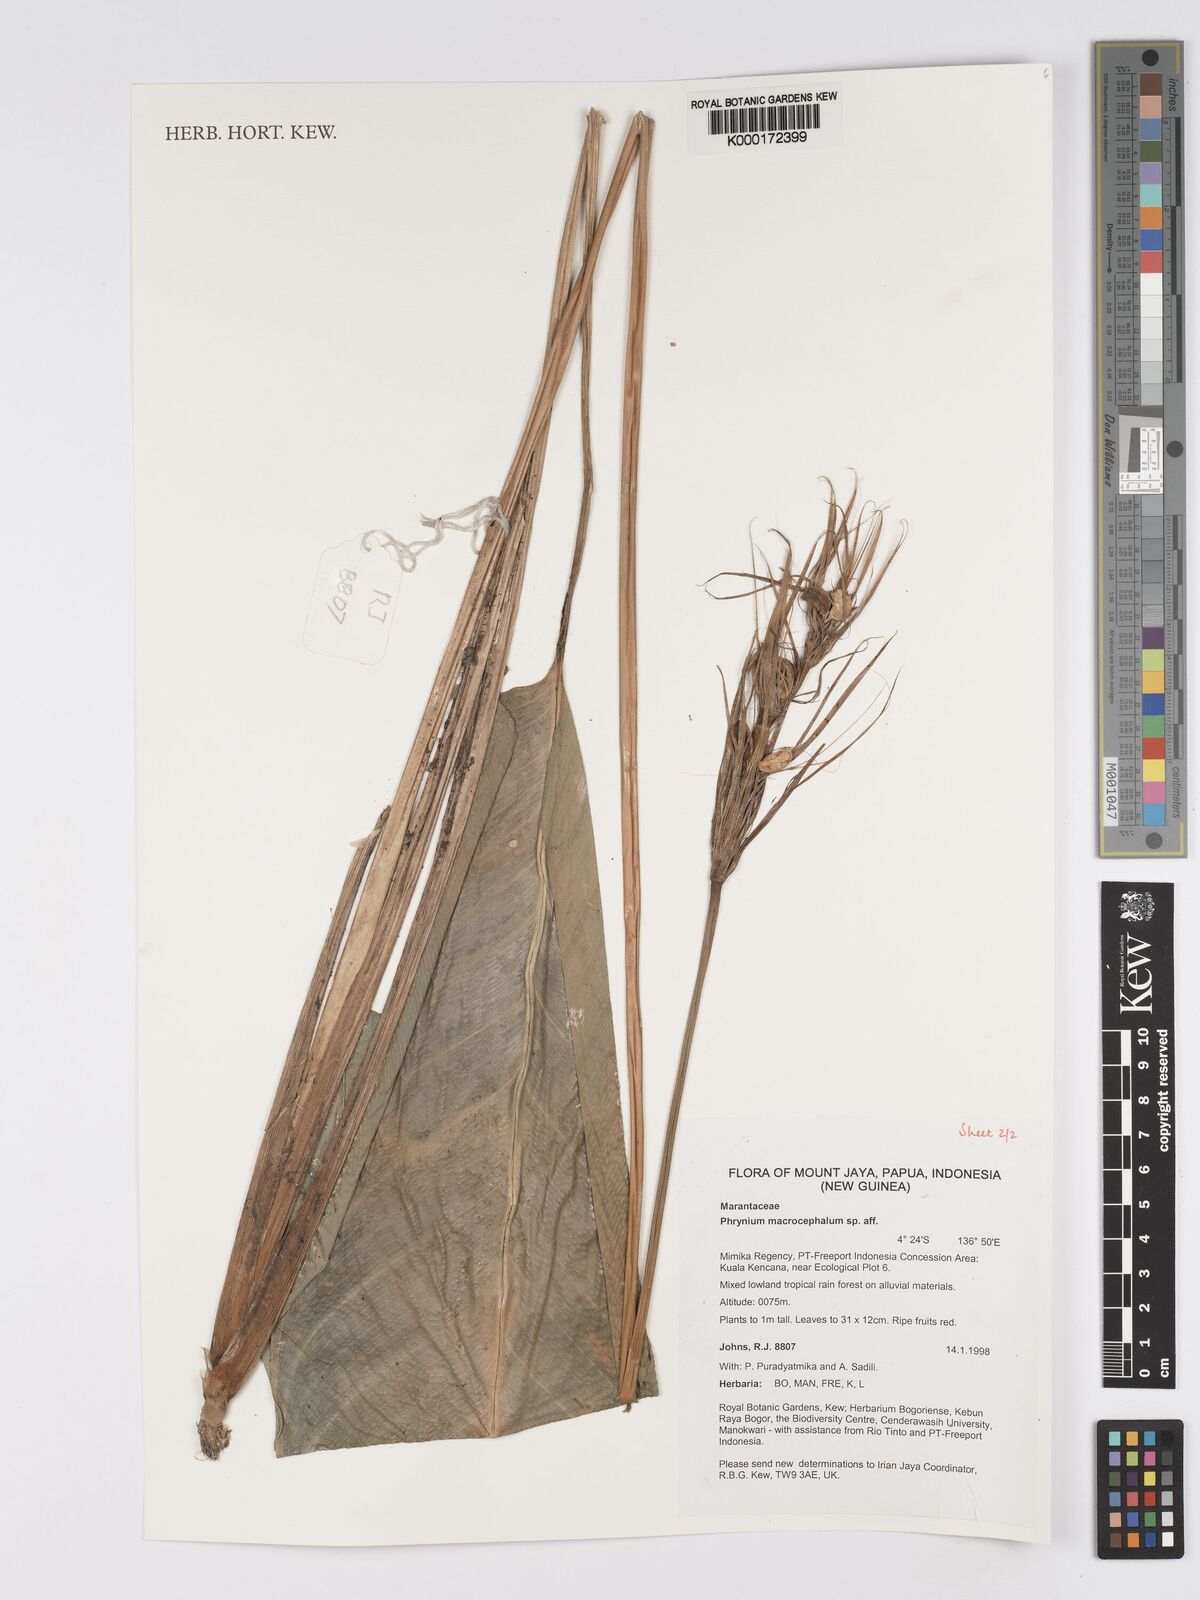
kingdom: Plantae
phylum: Tracheophyta
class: Liliopsida
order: Zingiberales
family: Marantaceae
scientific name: Marantaceae
